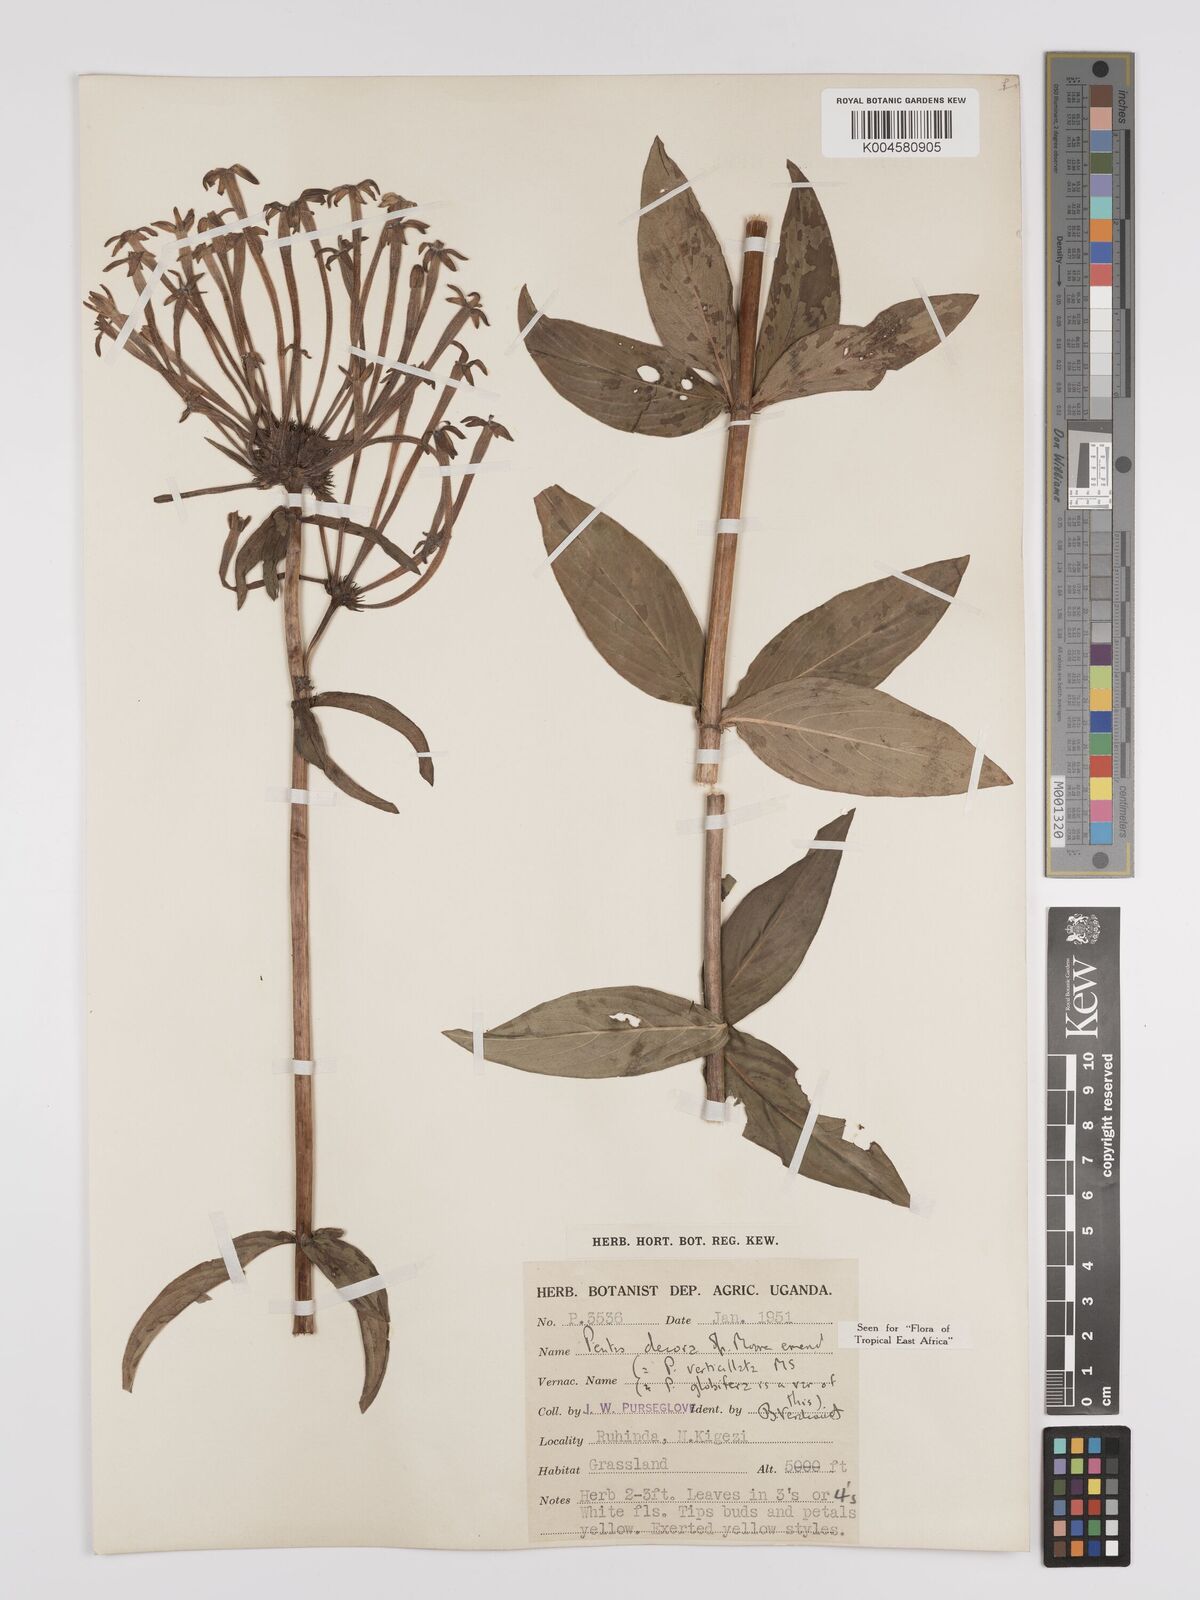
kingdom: Plantae
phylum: Tracheophyta
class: Magnoliopsida
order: Gentianales
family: Rubiaceae
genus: Dolichopentas
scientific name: Dolichopentas decora
